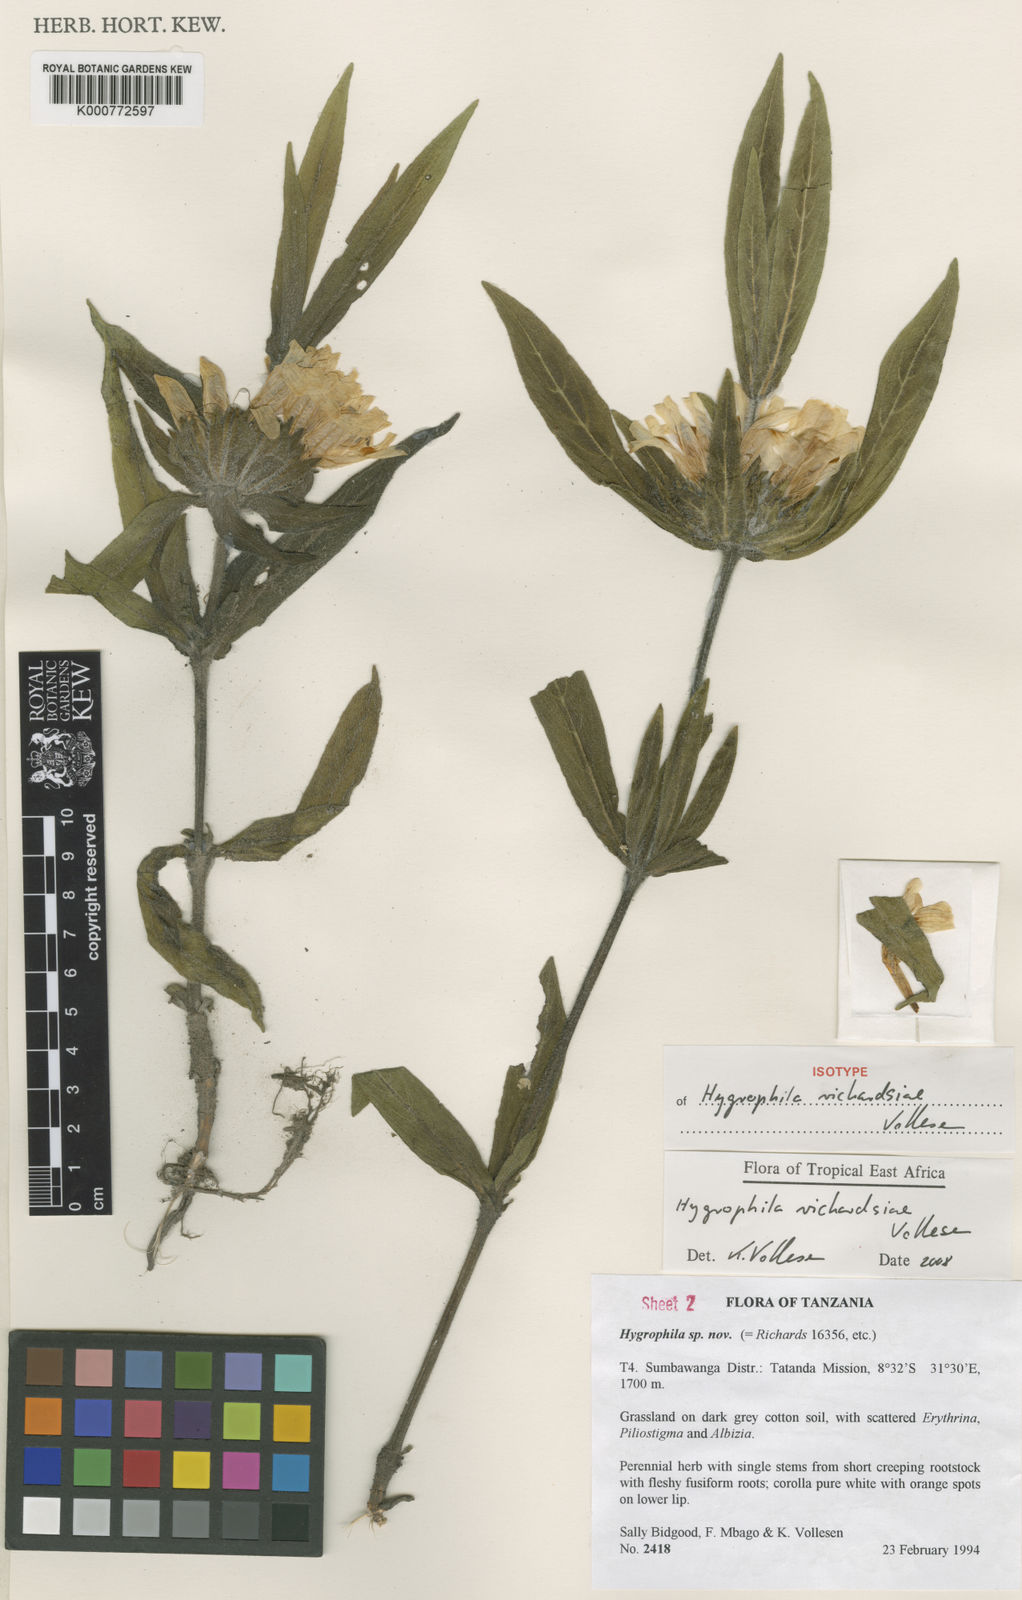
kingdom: Plantae
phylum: Tracheophyta
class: Magnoliopsida
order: Lamiales
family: Acanthaceae
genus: Hygrophila
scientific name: Hygrophila richardsiae
